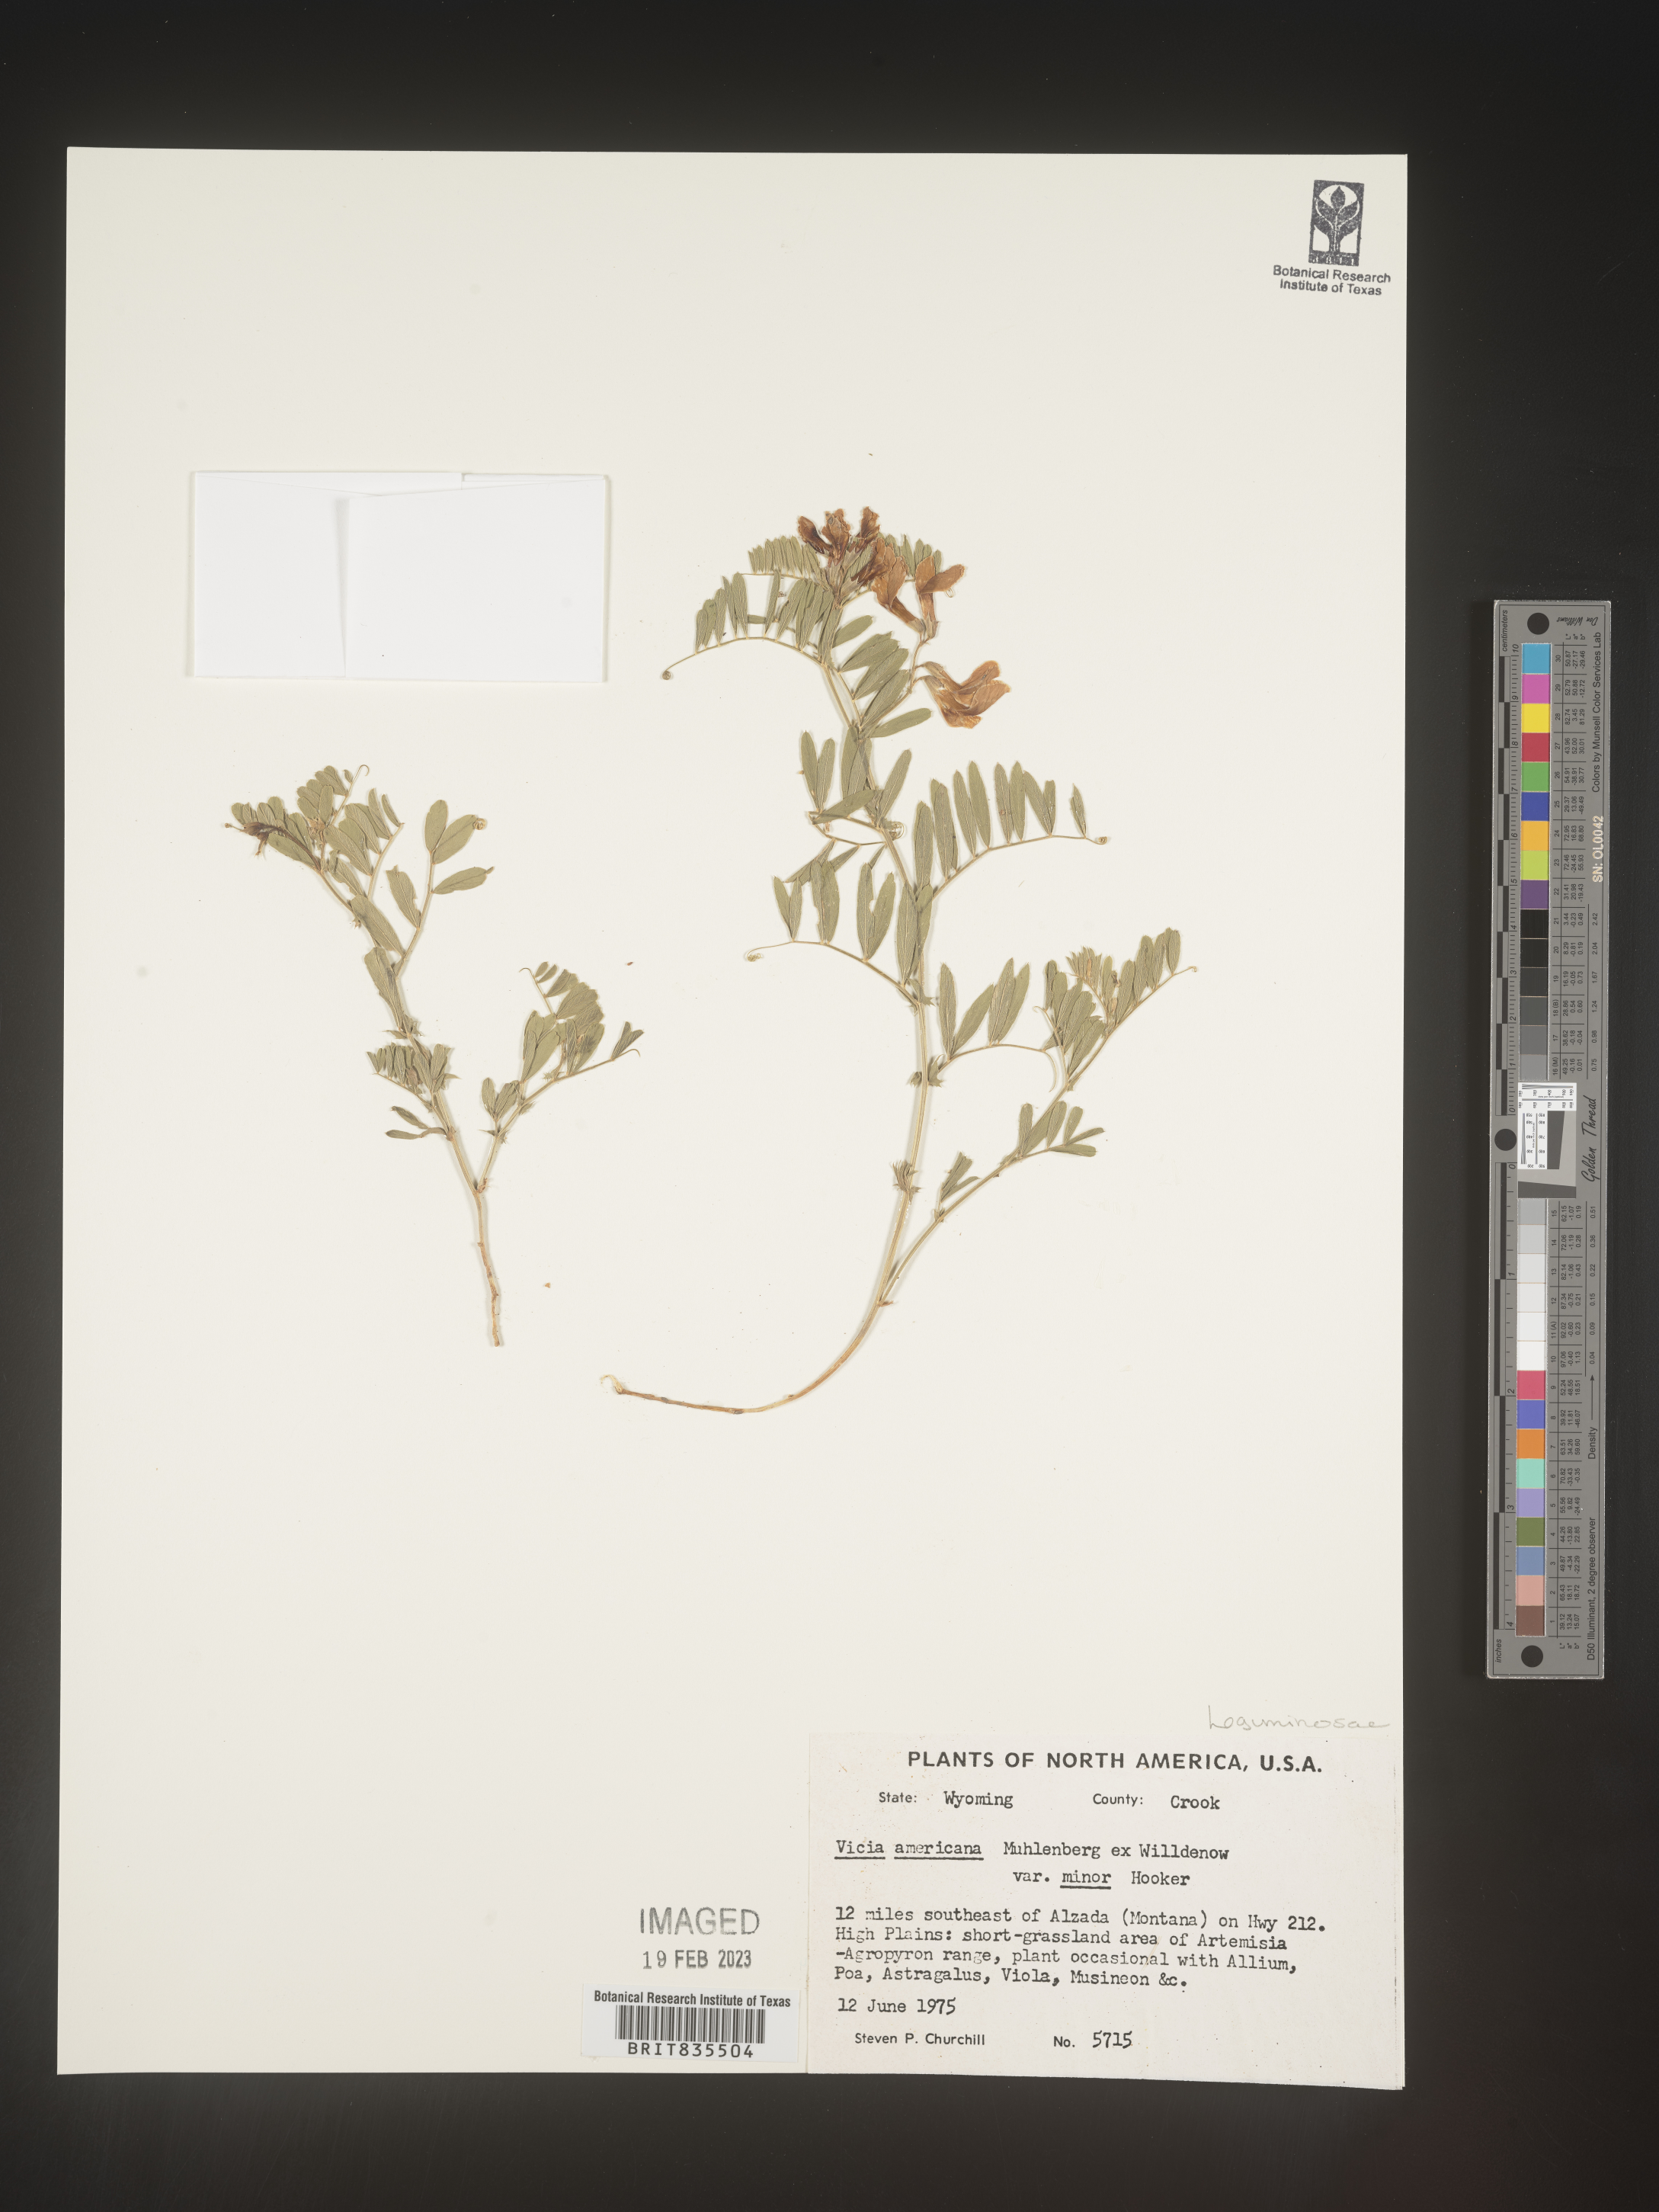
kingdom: Plantae
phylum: Tracheophyta
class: Magnoliopsida
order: Fabales
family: Fabaceae
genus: Vicia
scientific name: Vicia americana
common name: American vetch
